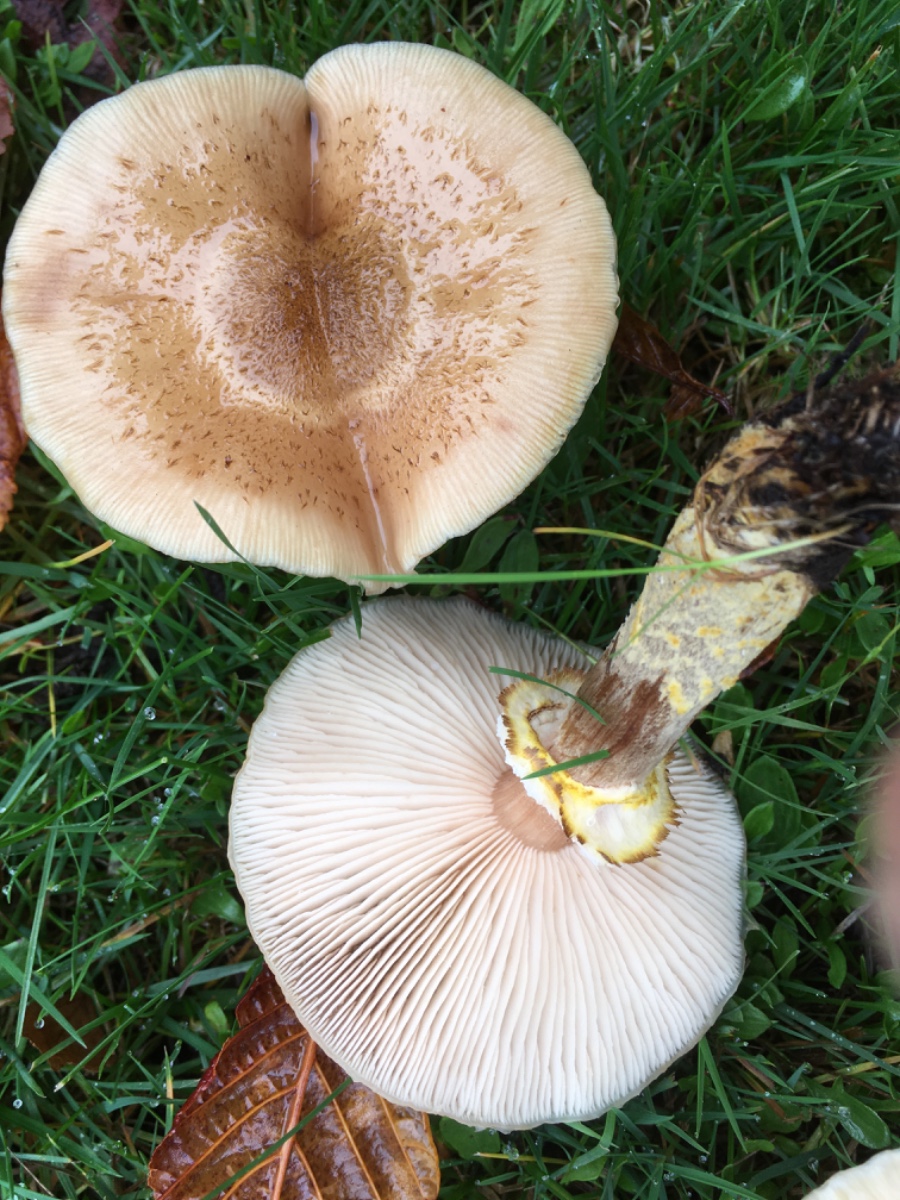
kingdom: Fungi
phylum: Basidiomycota
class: Agaricomycetes
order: Agaricales
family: Physalacriaceae
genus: Armillaria
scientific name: Armillaria lutea
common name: køllestokket honningsvamp
